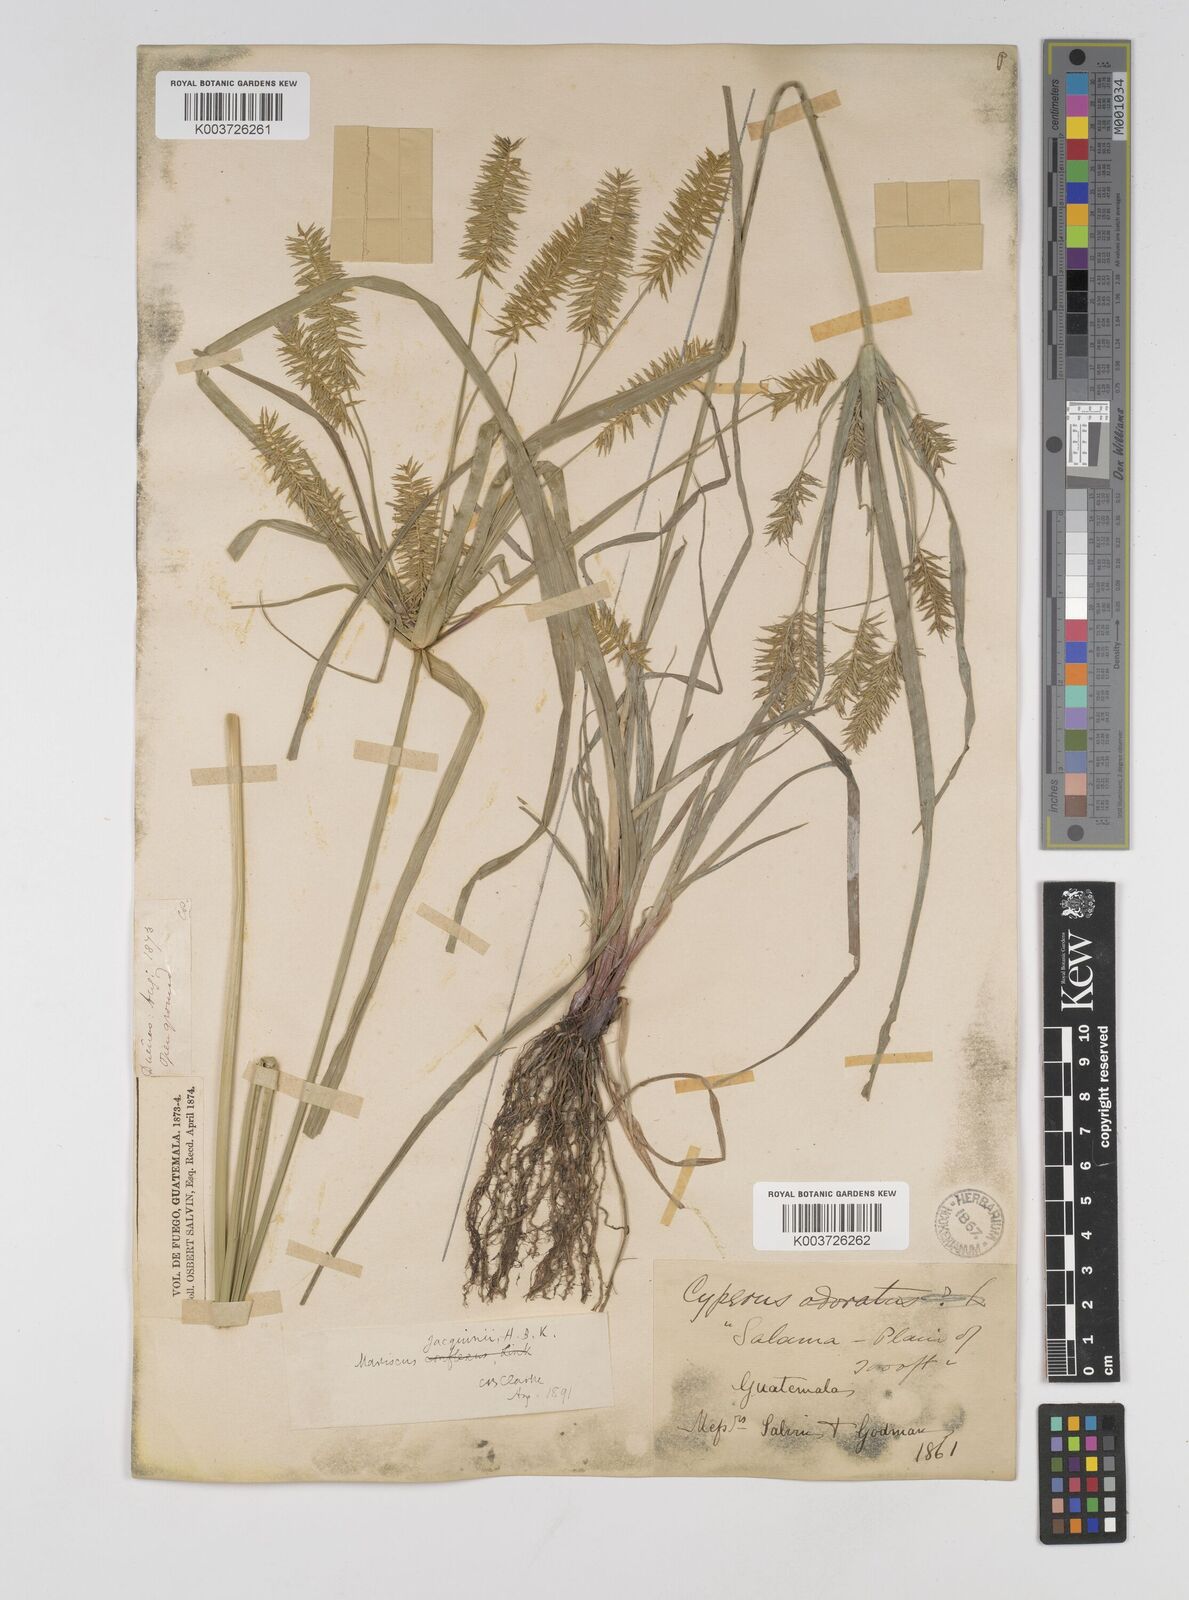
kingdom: Plantae
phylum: Tracheophyta
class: Liliopsida
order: Poales
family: Cyperaceae
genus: Cyperus
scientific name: Cyperus hermaphroditus
